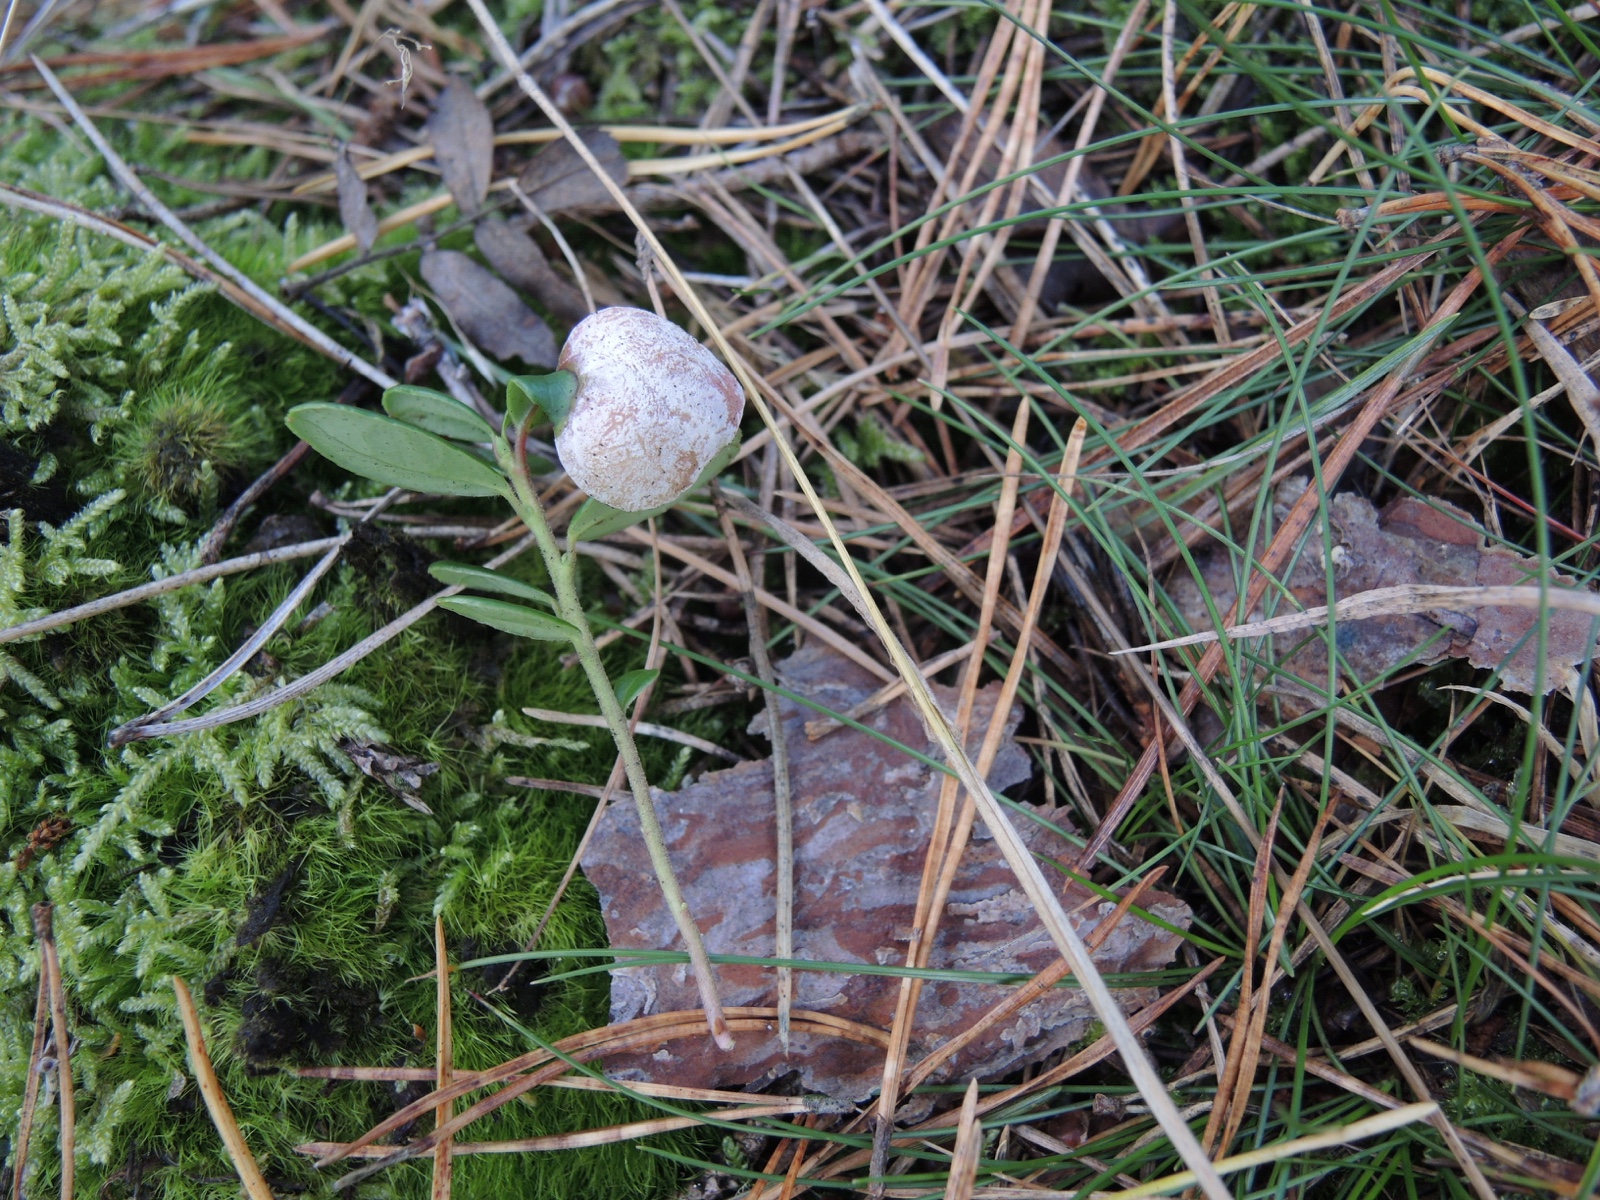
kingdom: Fungi
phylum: Basidiomycota
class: Exobasidiomycetes
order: Exobasidiales
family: Exobasidiaceae
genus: Exobasidium
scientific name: Exobasidium vaccinii
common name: tyttebærblad-bøllesvamp
